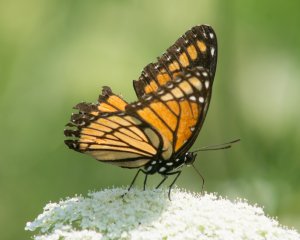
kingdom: Animalia
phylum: Arthropoda
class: Insecta
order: Lepidoptera
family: Nymphalidae
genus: Limenitis
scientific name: Limenitis archippus
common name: Viceroy
